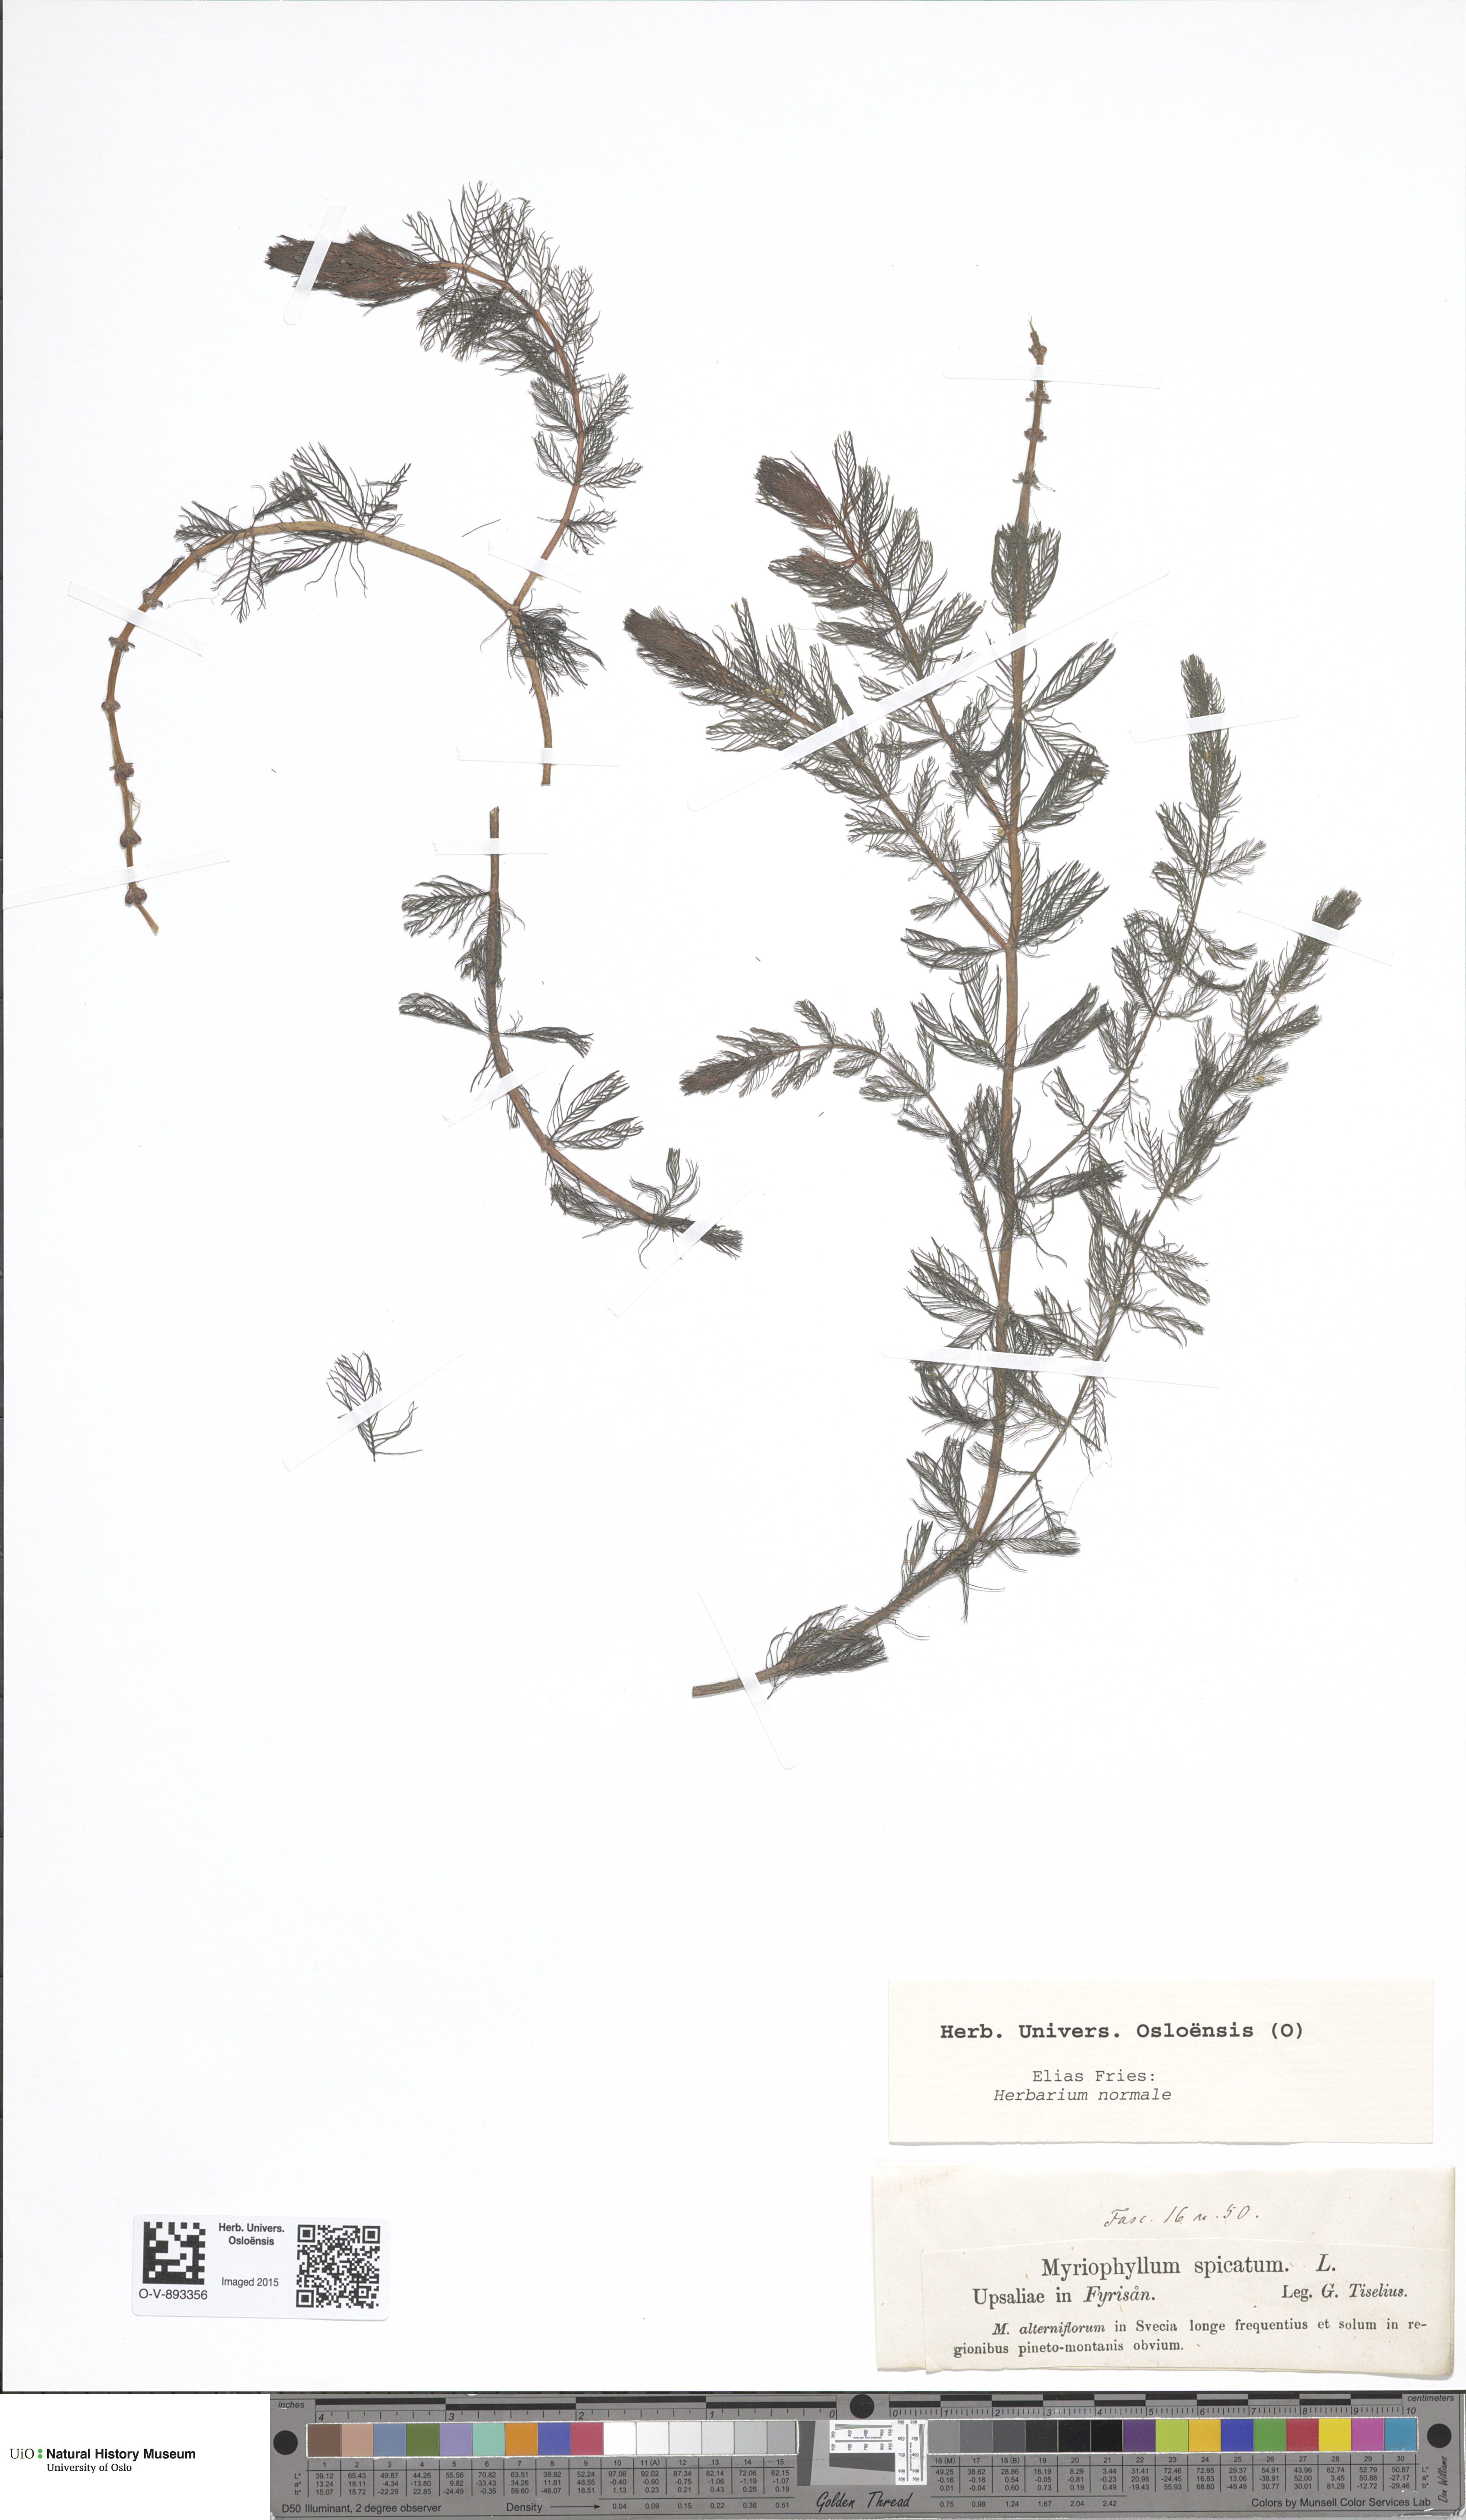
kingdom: Plantae
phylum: Tracheophyta
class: Magnoliopsida
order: Saxifragales
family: Haloragaceae
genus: Myriophyllum
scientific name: Myriophyllum spicatum
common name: Spiked water-milfoil
